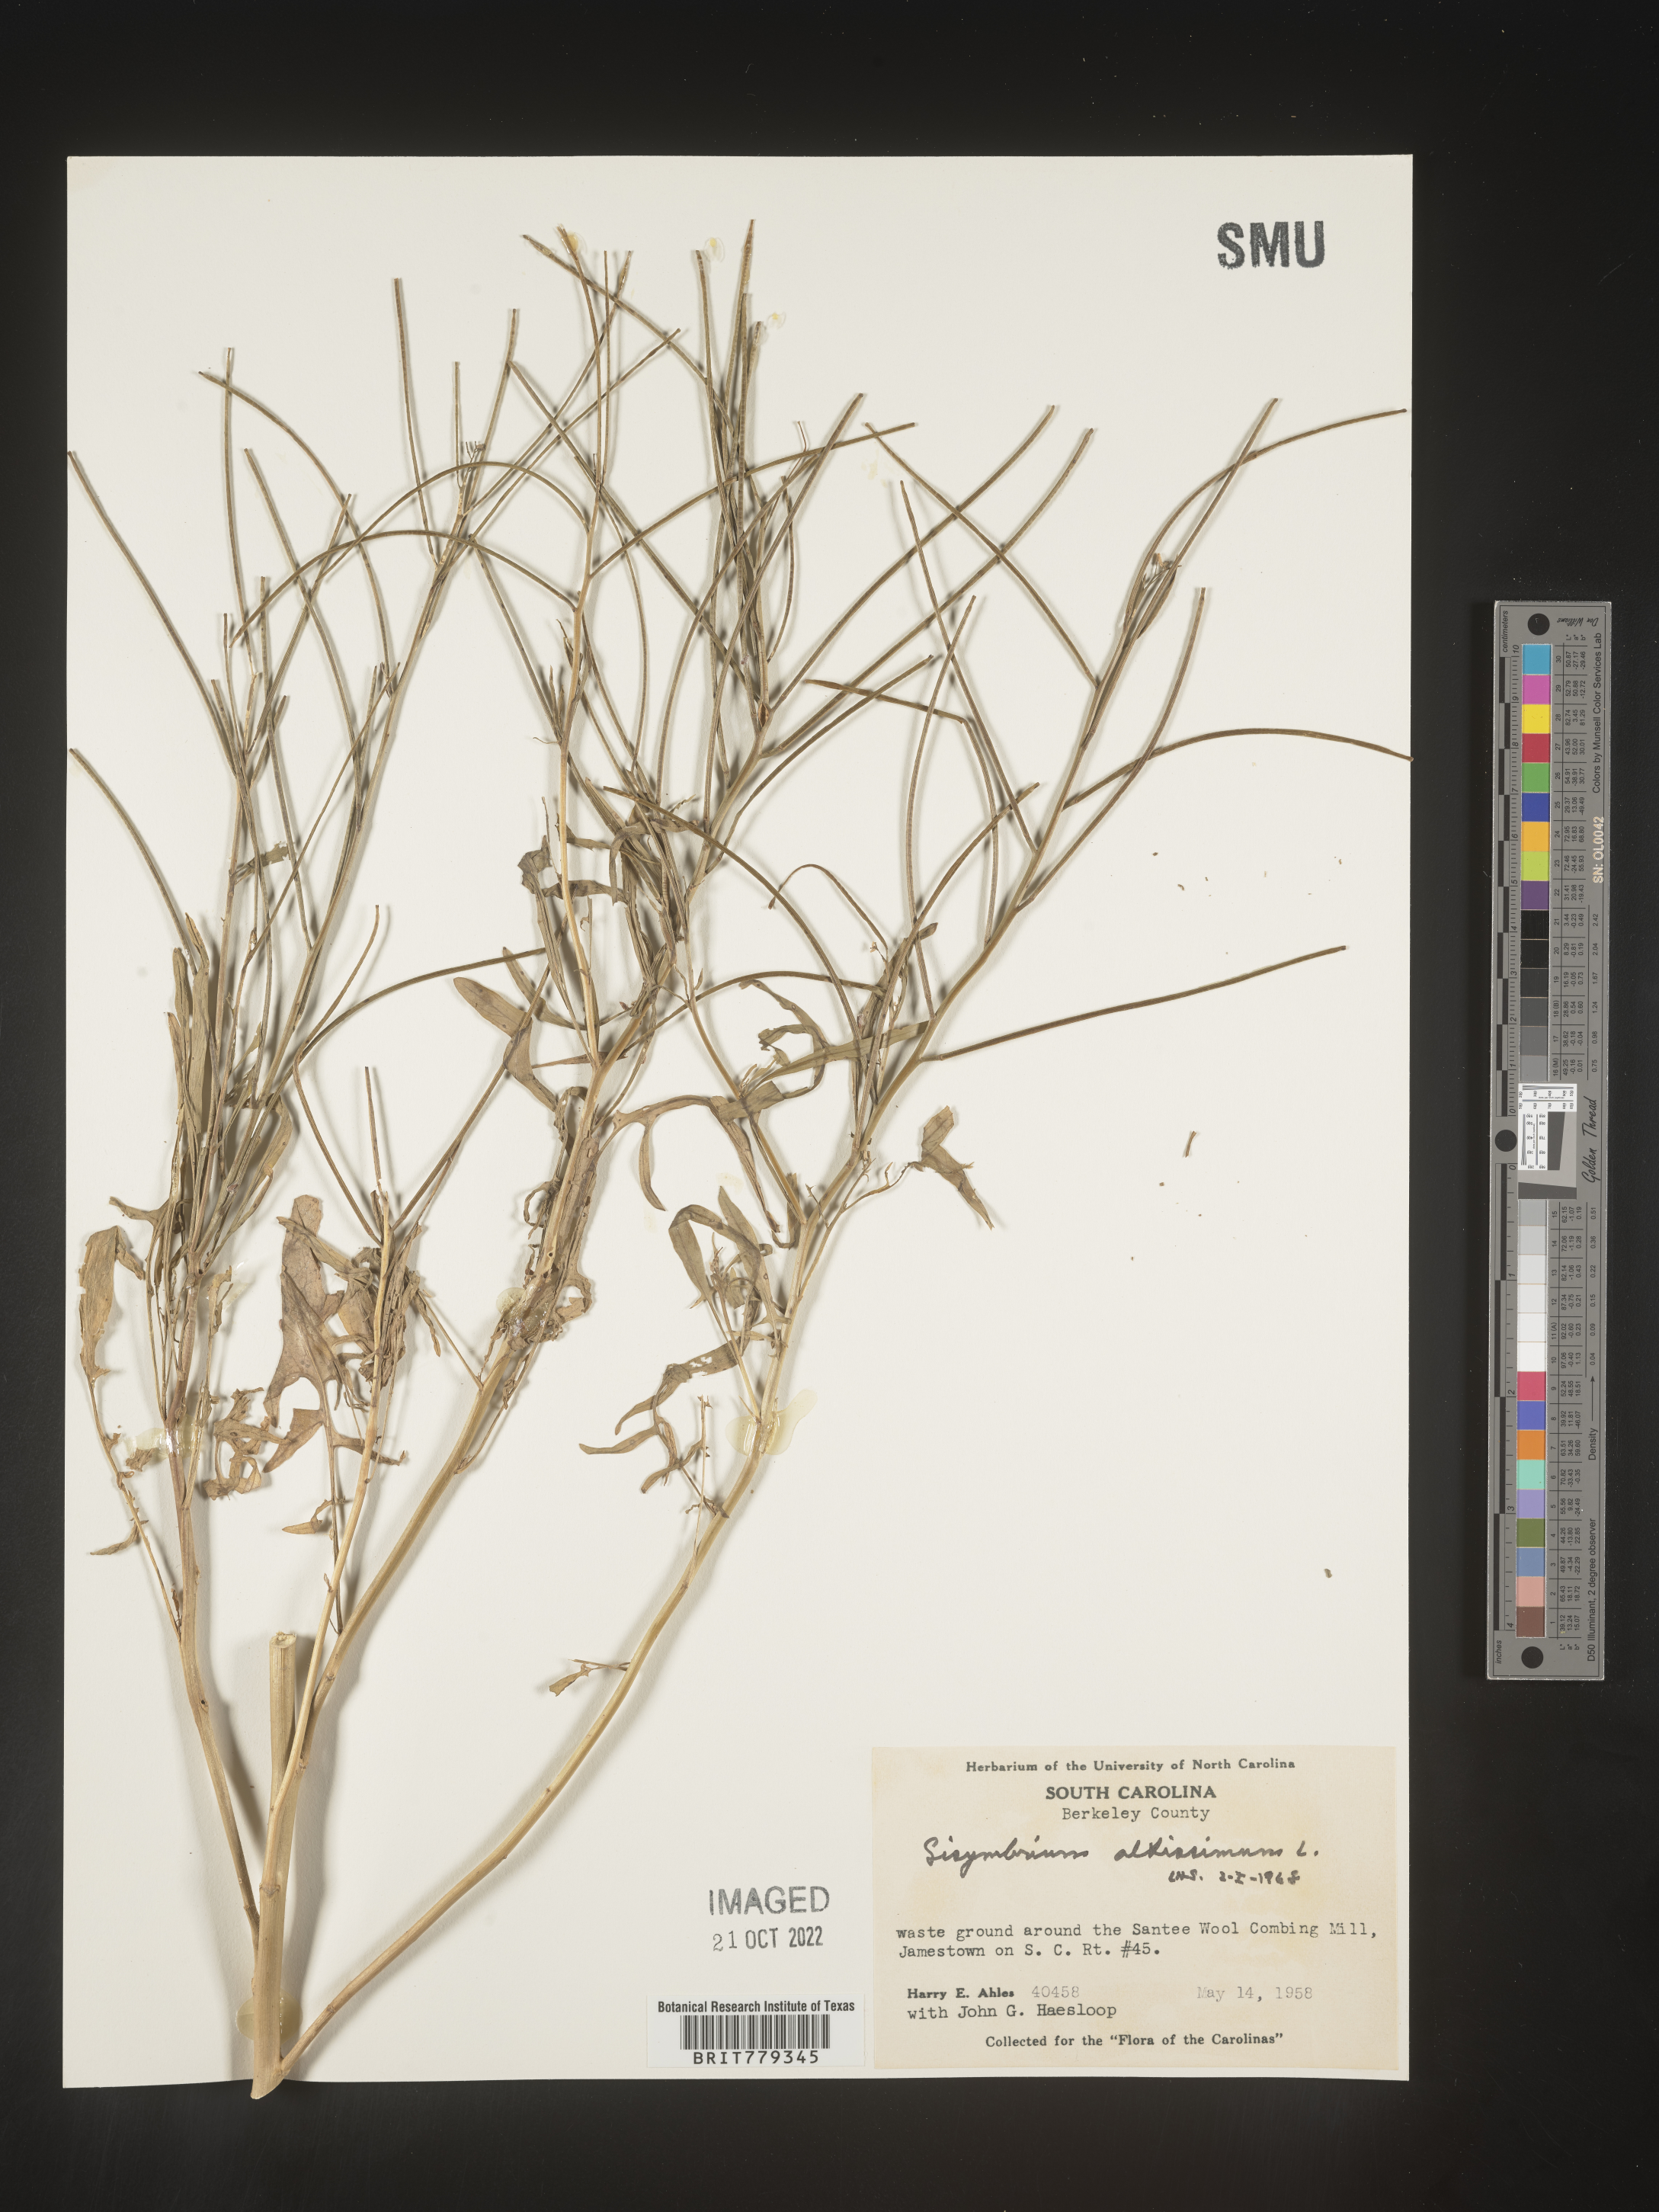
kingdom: Plantae
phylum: Tracheophyta
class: Magnoliopsida
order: Brassicales
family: Brassicaceae
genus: Sisymbrium
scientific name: Sisymbrium altissimum
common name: Tall rocket
